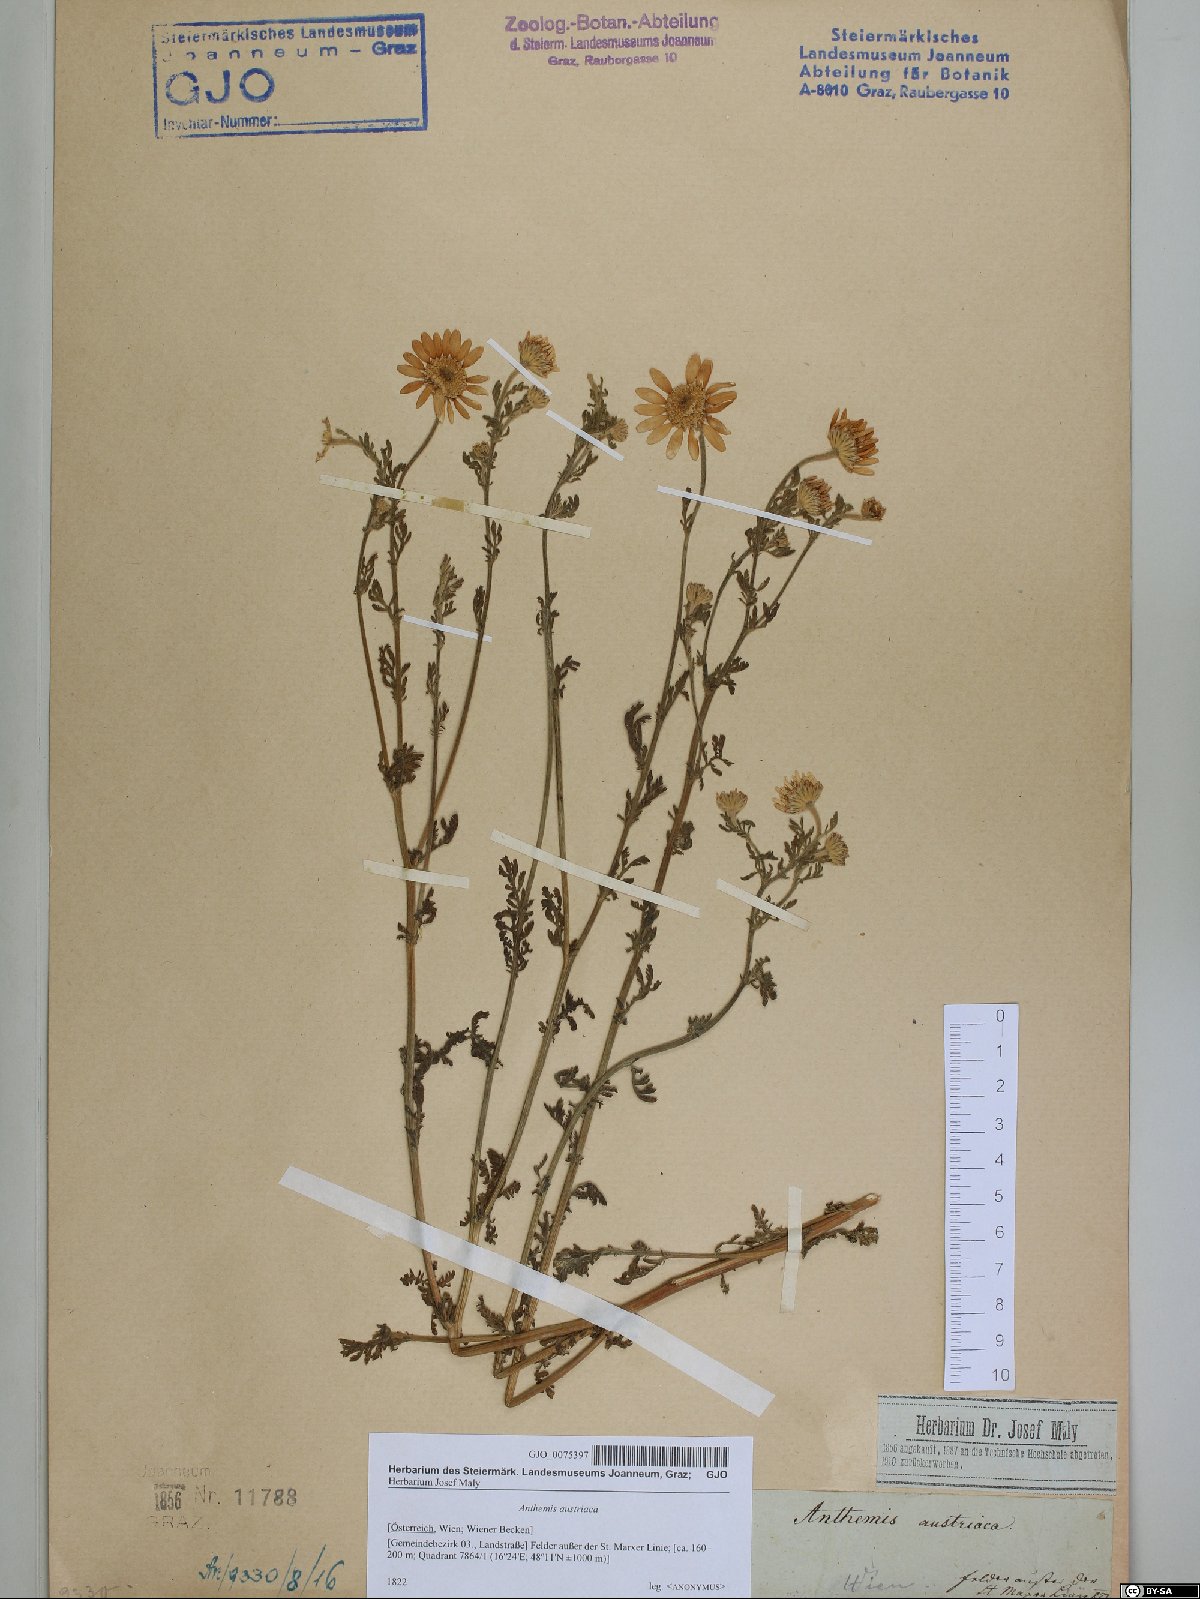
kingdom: Plantae
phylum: Tracheophyta
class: Magnoliopsida
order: Asterales
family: Asteraceae
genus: Cota
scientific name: Cota austriaca
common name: Austrian chamomile
